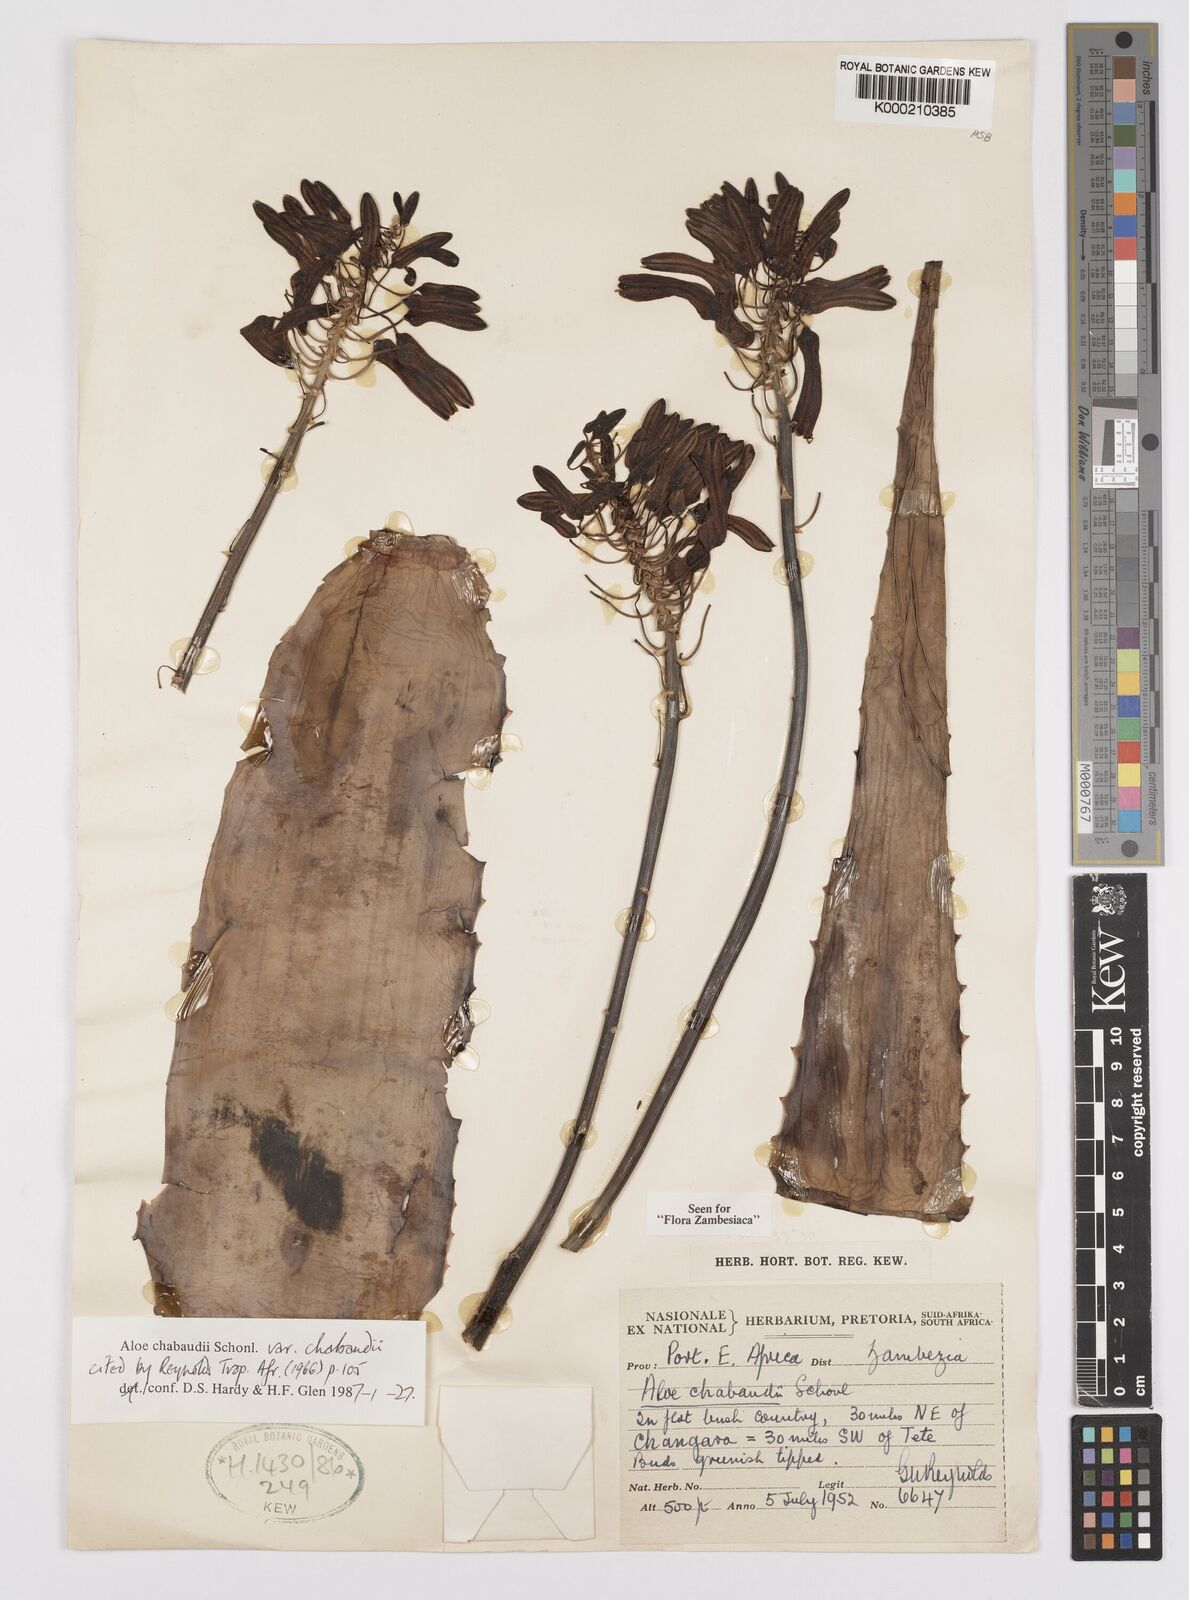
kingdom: Plantae
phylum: Tracheophyta
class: Liliopsida
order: Asparagales
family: Asphodelaceae
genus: Aloe
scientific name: Aloe chabaudii
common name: Chabaud's aloe
